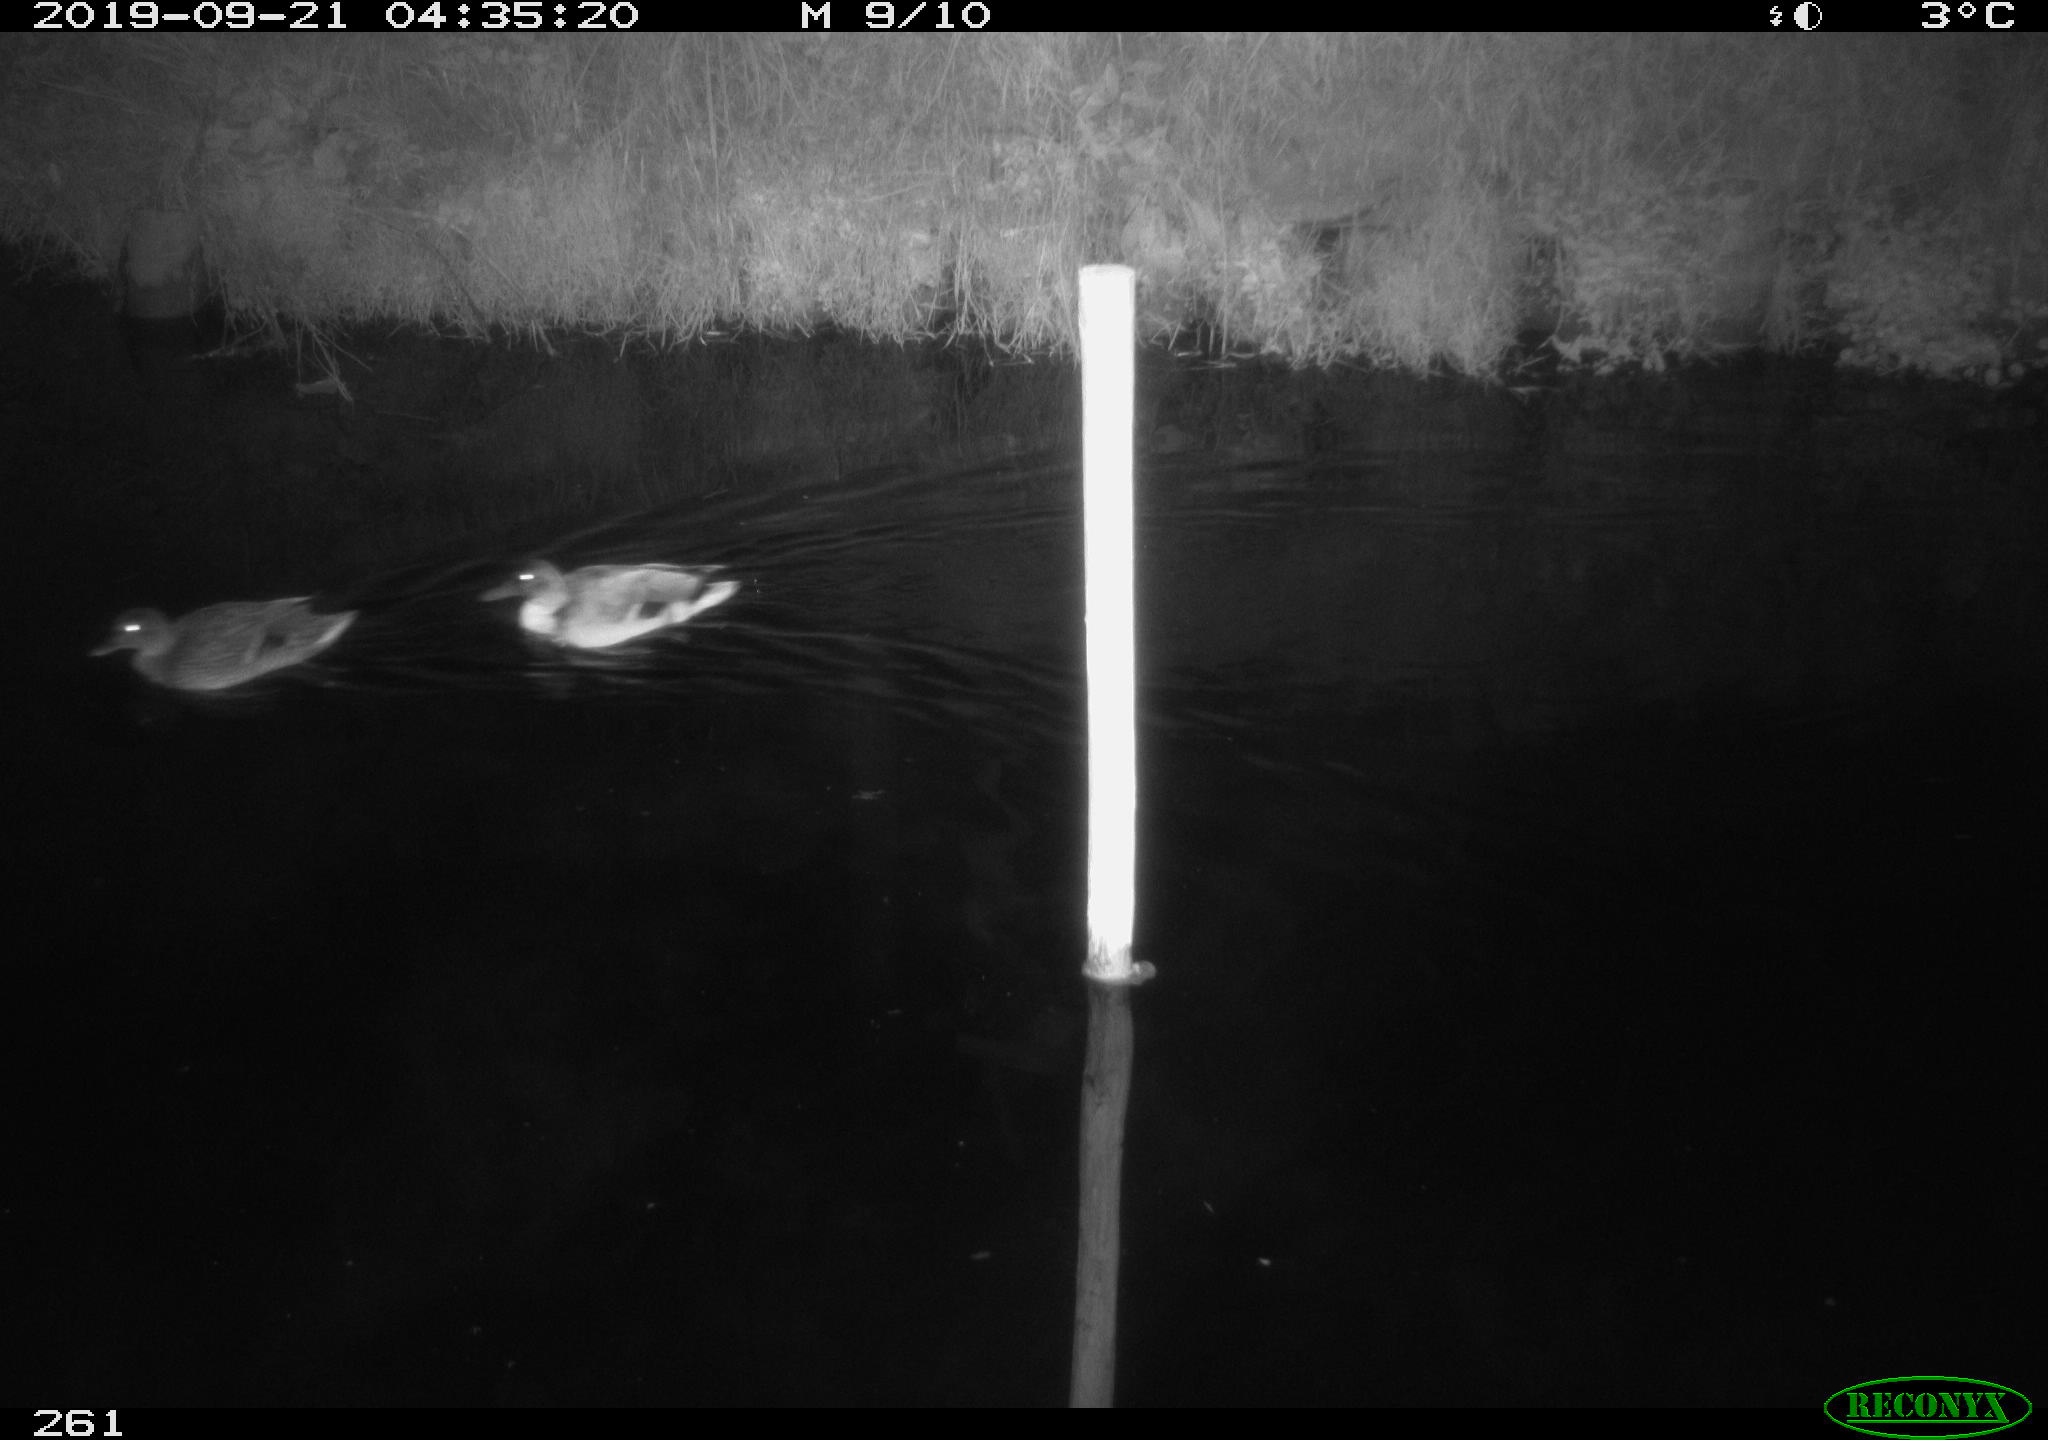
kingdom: Animalia
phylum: Chordata
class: Aves
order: Anseriformes
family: Anatidae
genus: Anas
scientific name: Anas platyrhynchos
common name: Mallard
